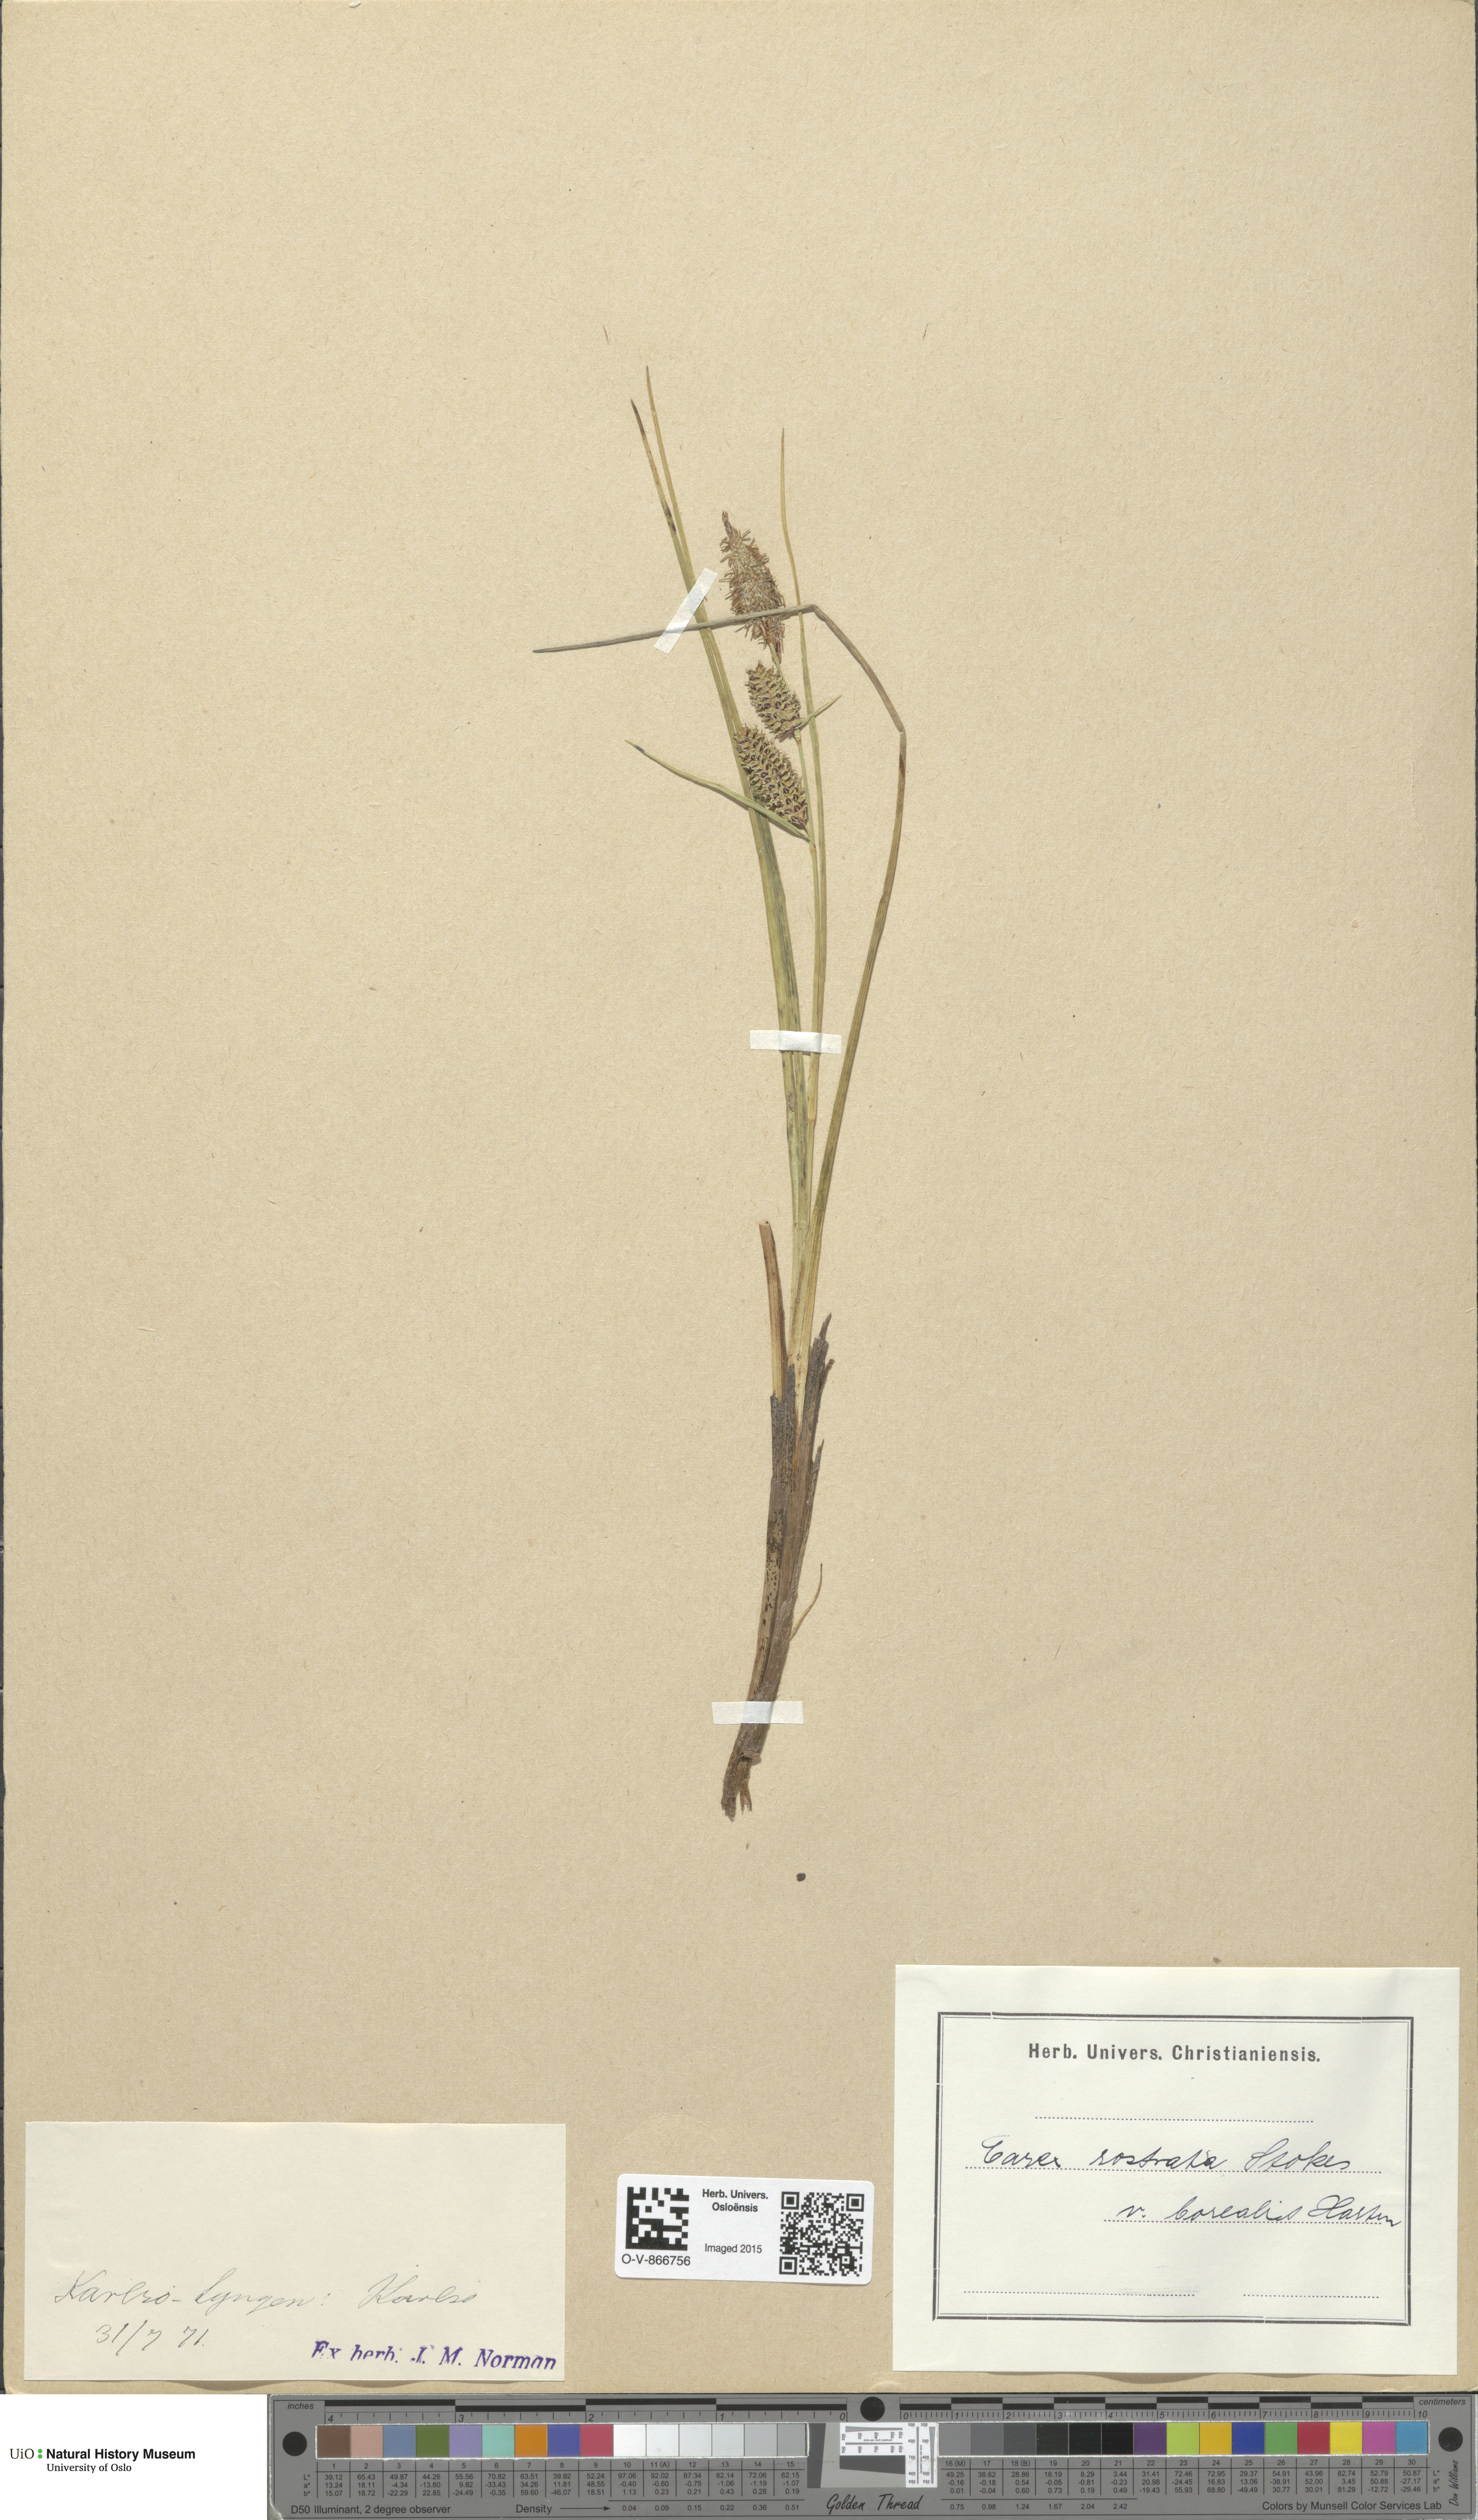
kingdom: Plantae
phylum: Tracheophyta
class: Liliopsida
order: Poales
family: Cyperaceae
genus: Carex
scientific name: Carex saamica
